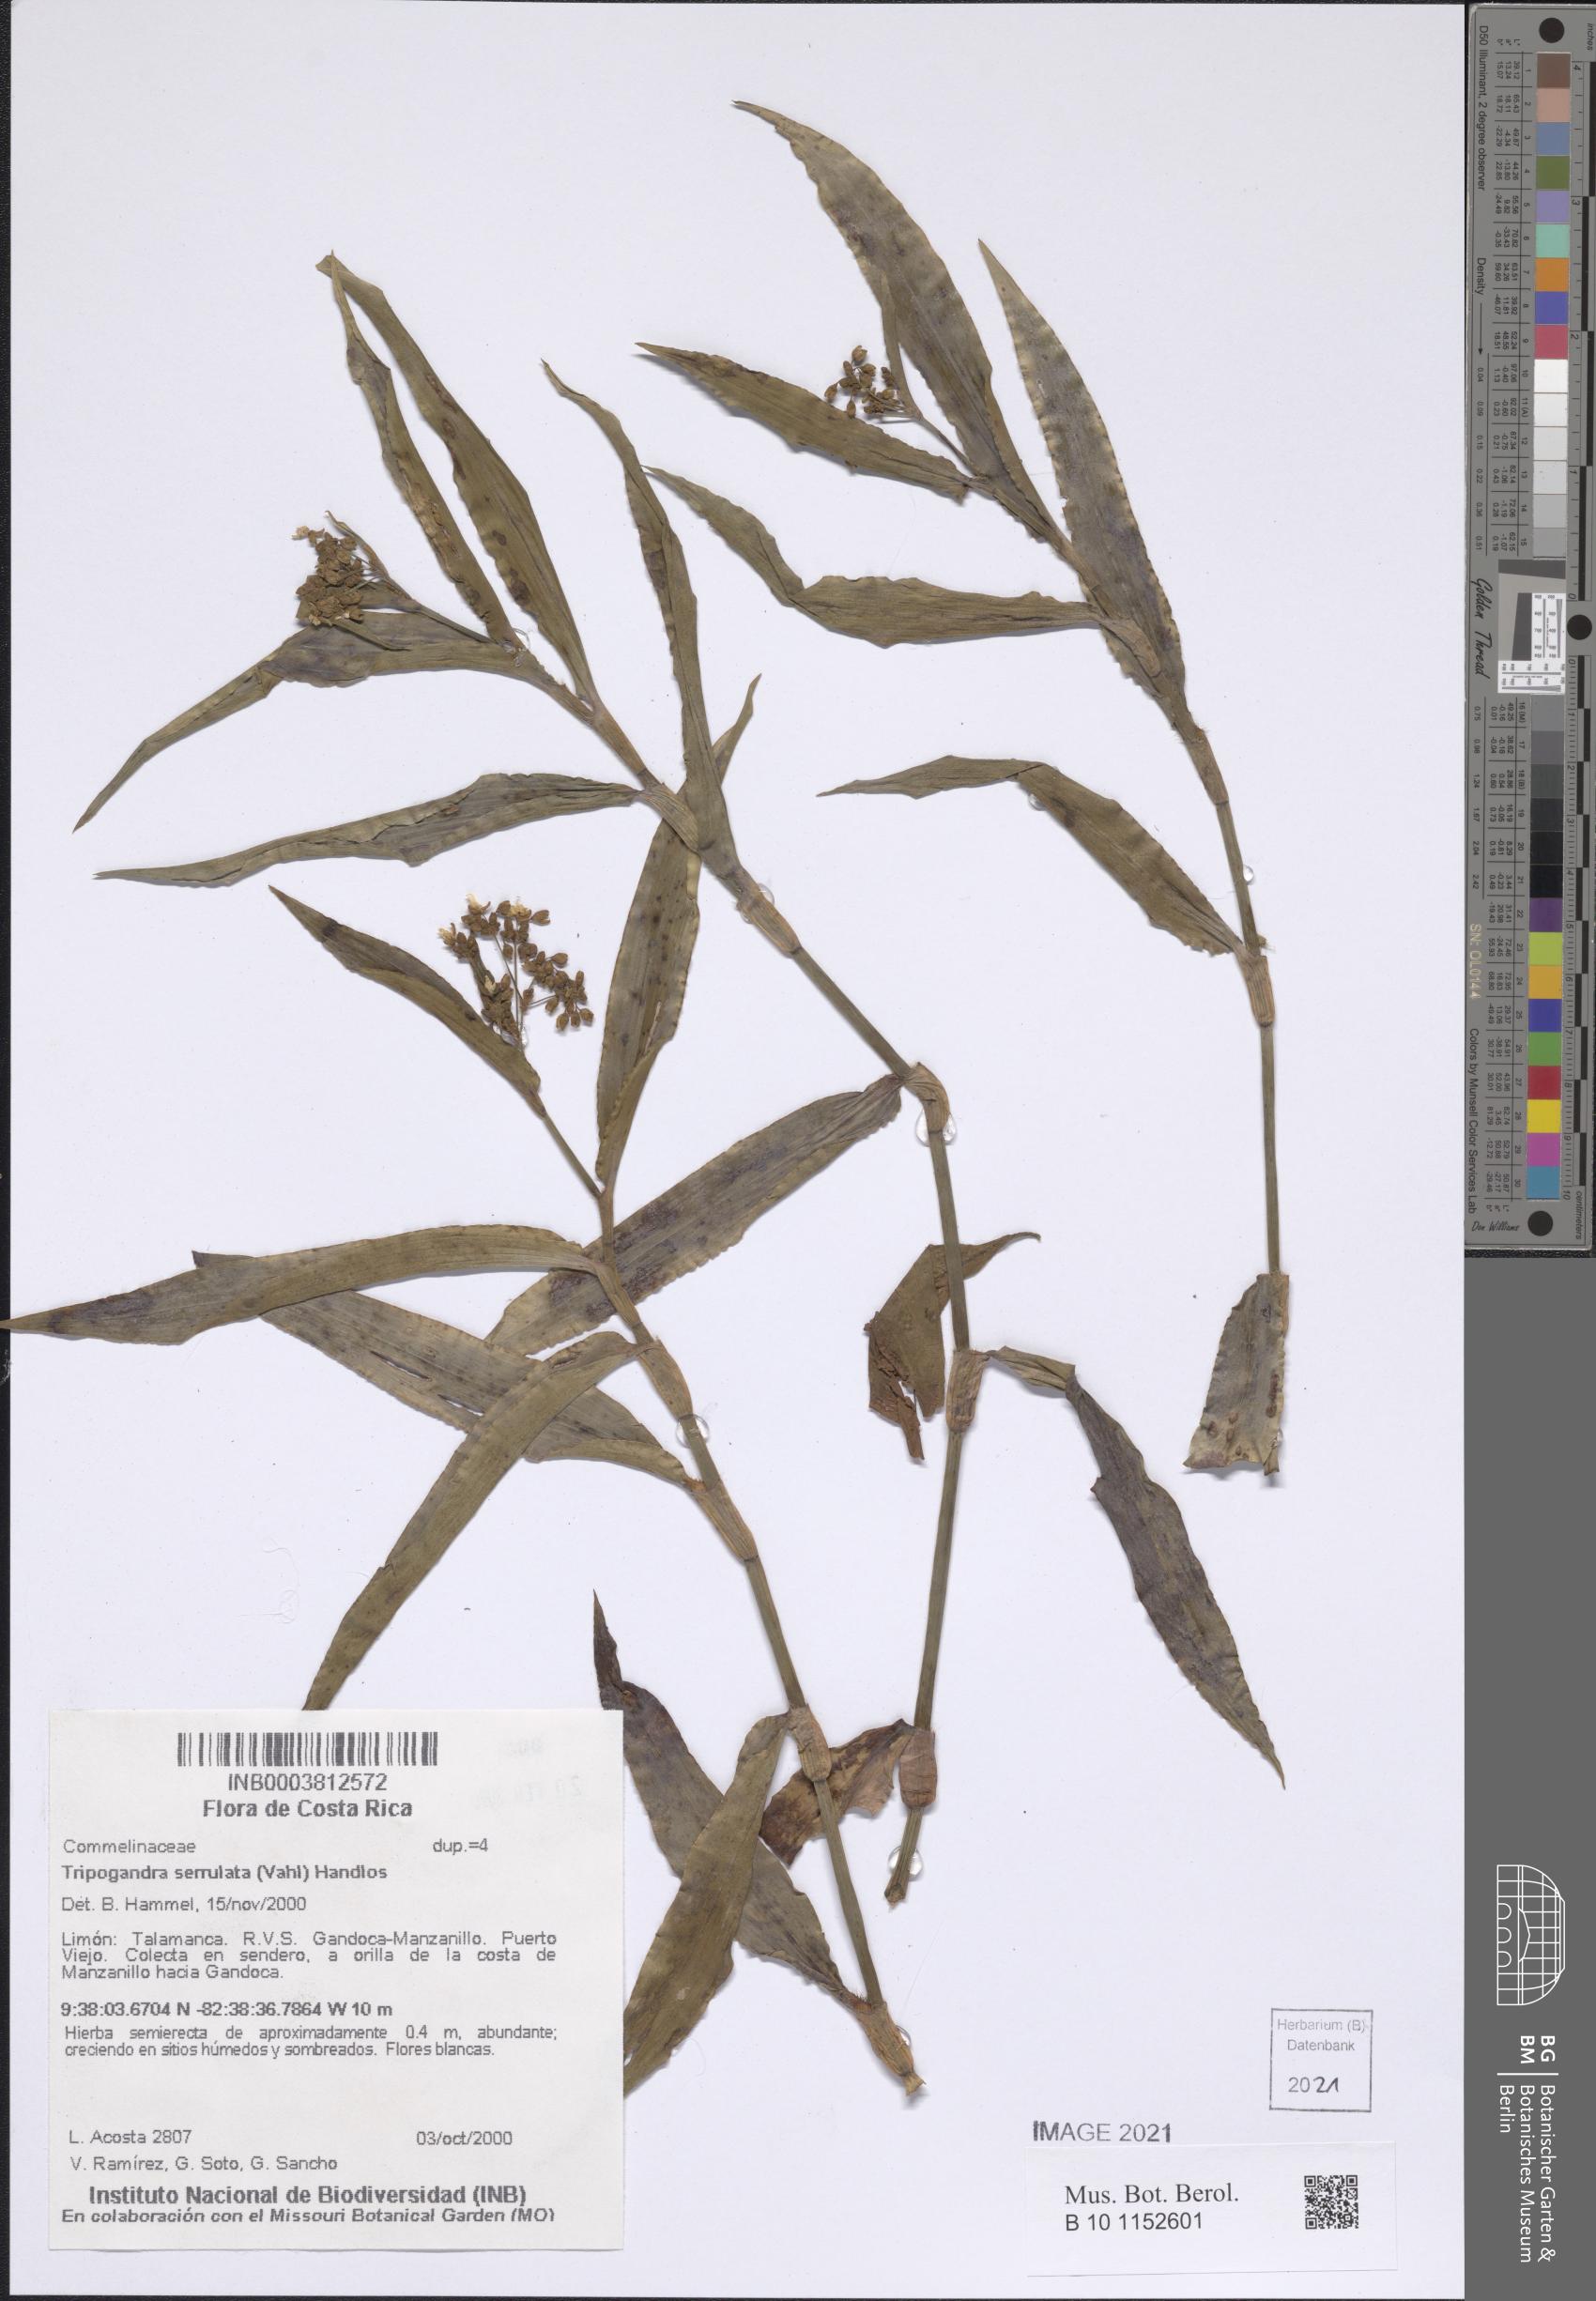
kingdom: Plantae
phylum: Tracheophyta
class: Liliopsida
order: Commelinales
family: Commelinaceae
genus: Callisia
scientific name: Callisia serrulata
